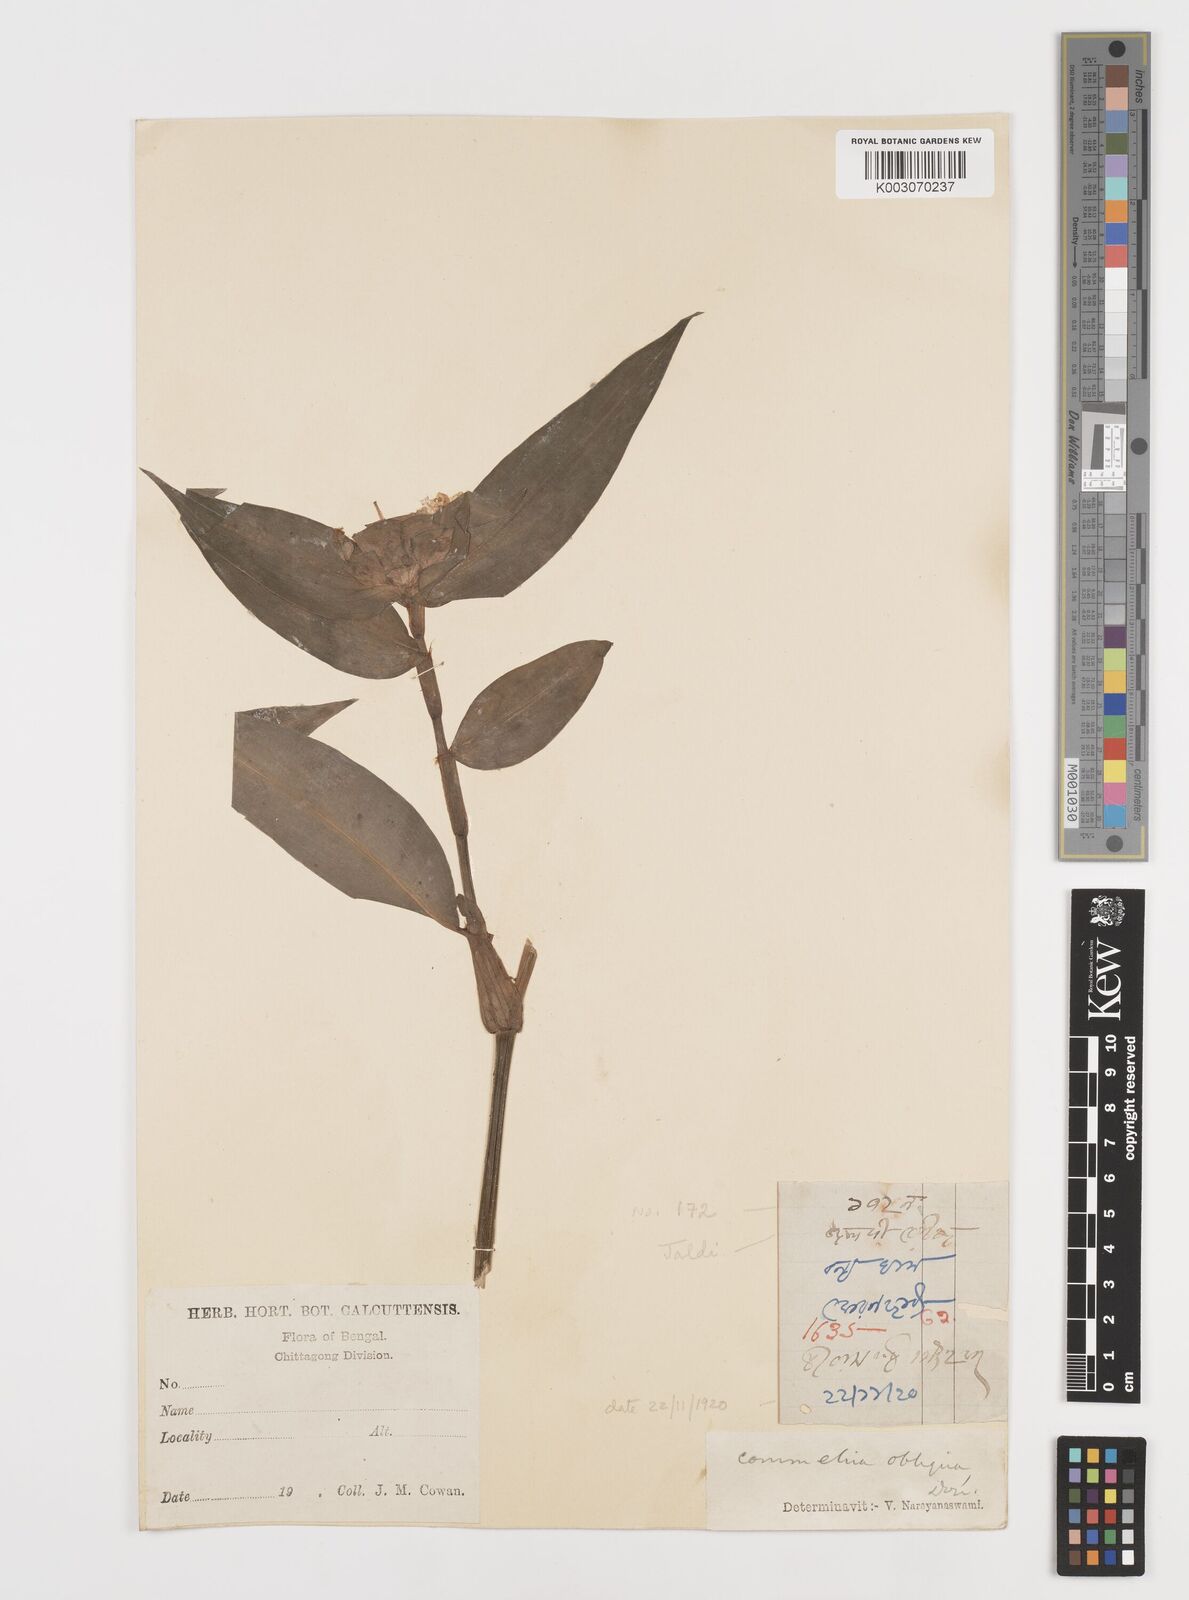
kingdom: Plantae
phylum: Tracheophyta
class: Liliopsida
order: Commelinales
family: Commelinaceae
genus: Commelina
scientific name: Commelina paludosa
